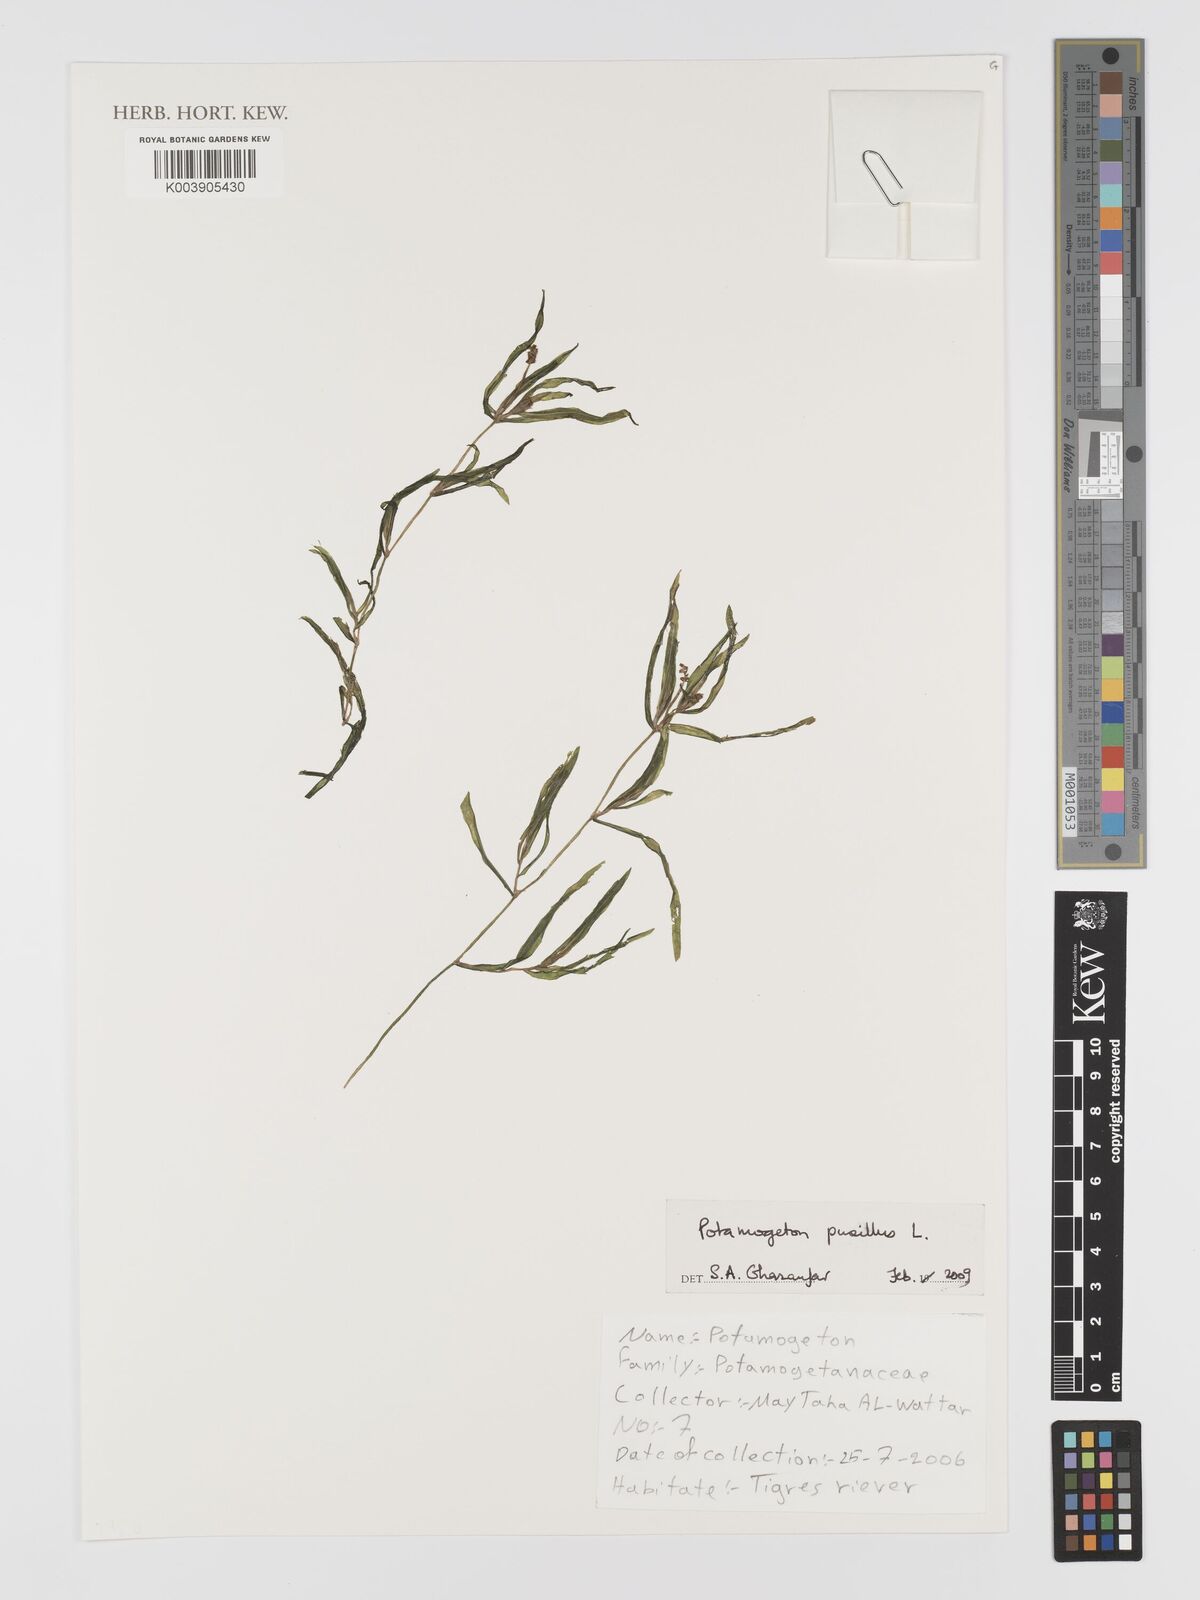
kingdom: Plantae
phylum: Tracheophyta
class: Liliopsida
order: Alismatales
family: Potamogetonaceae
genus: Potamogeton
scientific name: Potamogeton pusillus
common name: Lesser pondweed
